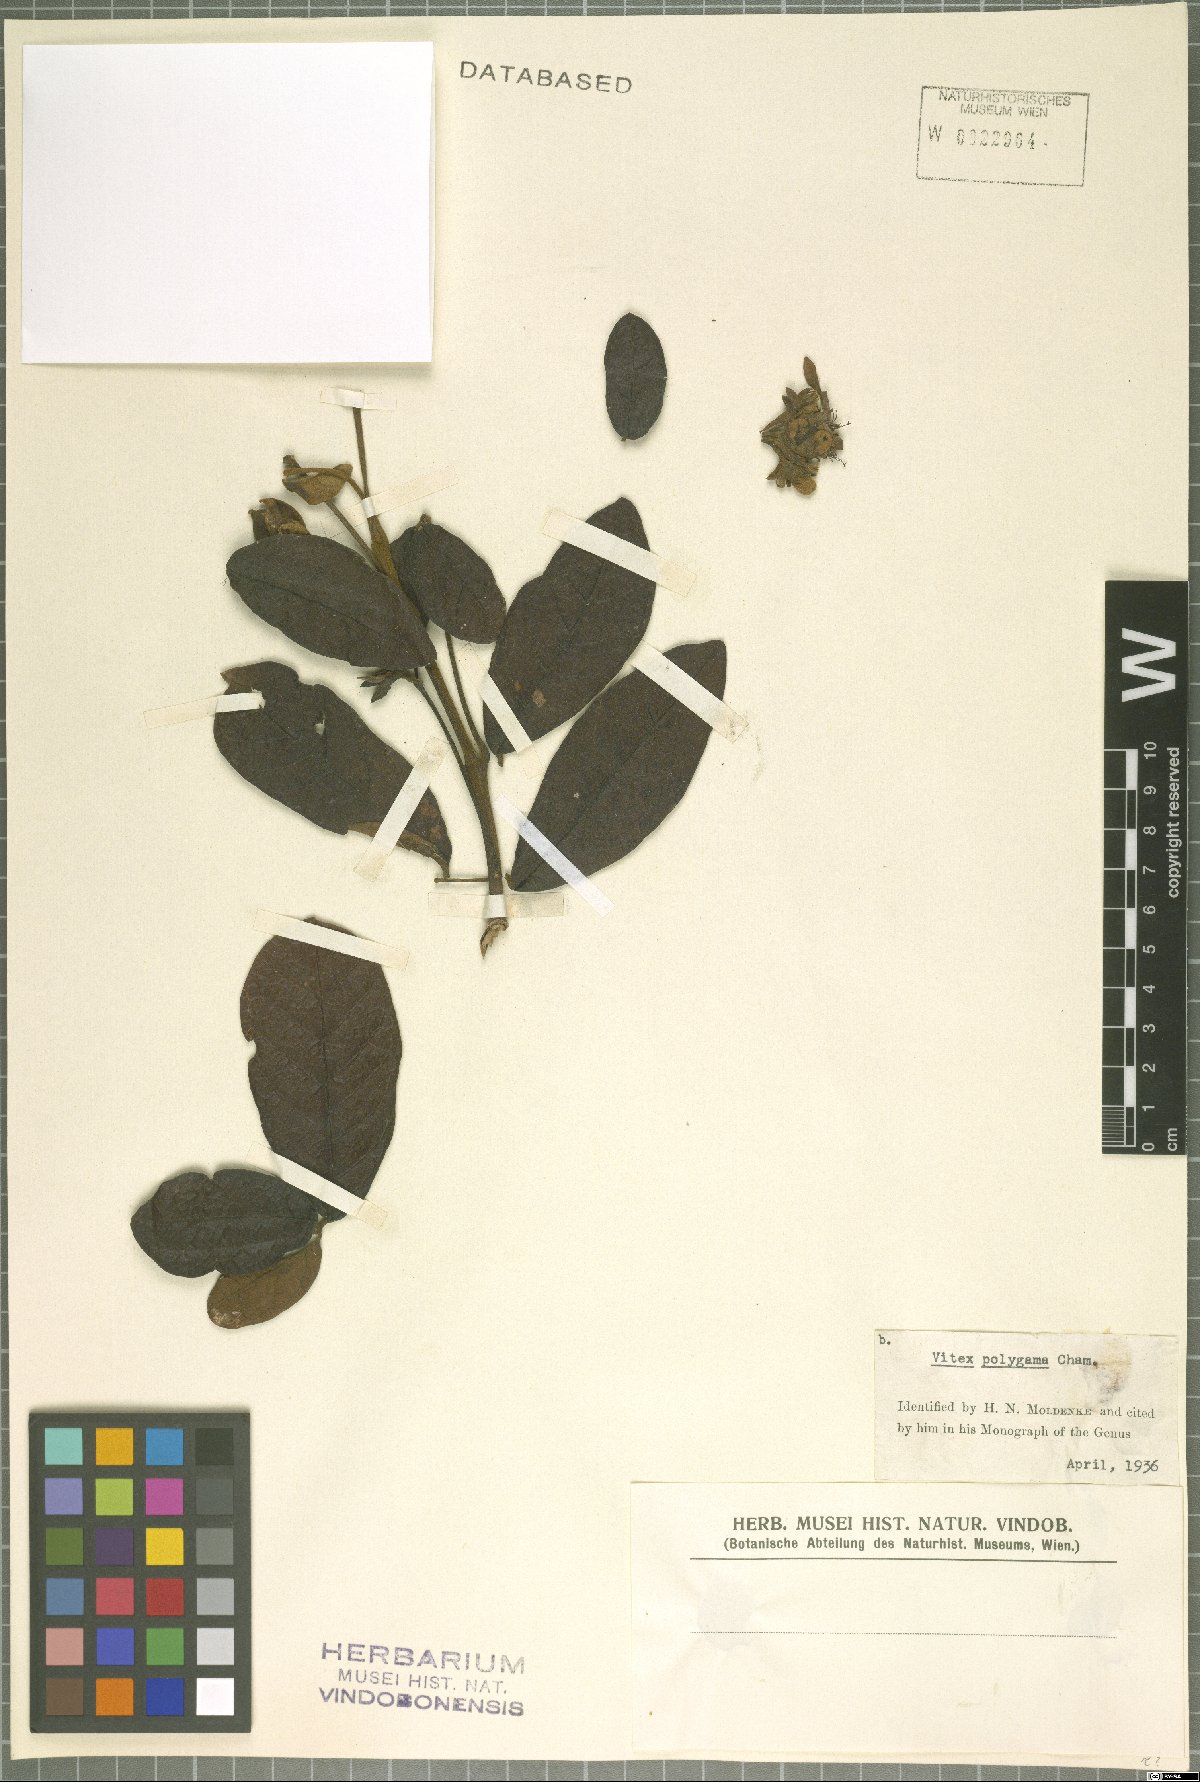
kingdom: Plantae
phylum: Tracheophyta
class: Magnoliopsida
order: Lamiales
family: Lamiaceae
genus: Vitex
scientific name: Vitex polygama
